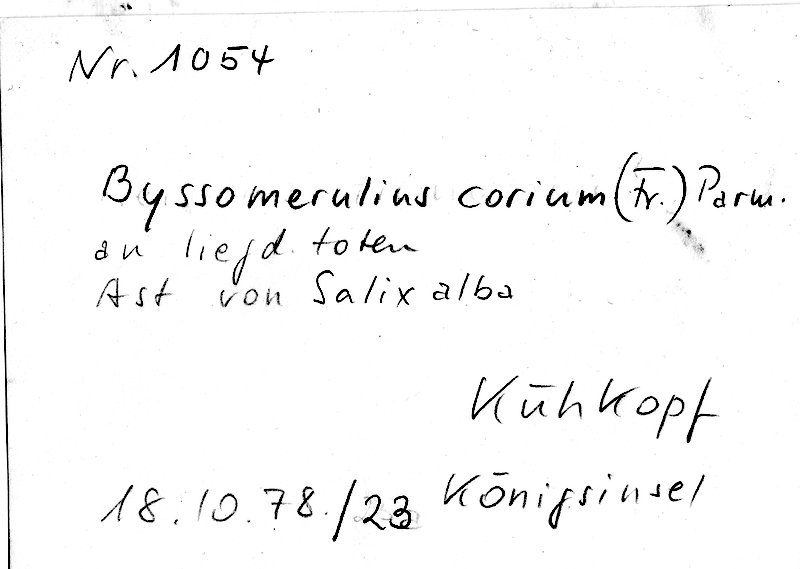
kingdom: Fungi
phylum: Basidiomycota
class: Agaricomycetes
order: Polyporales
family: Irpicaceae
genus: Byssomerulius
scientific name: Byssomerulius corium
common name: Netted crust
